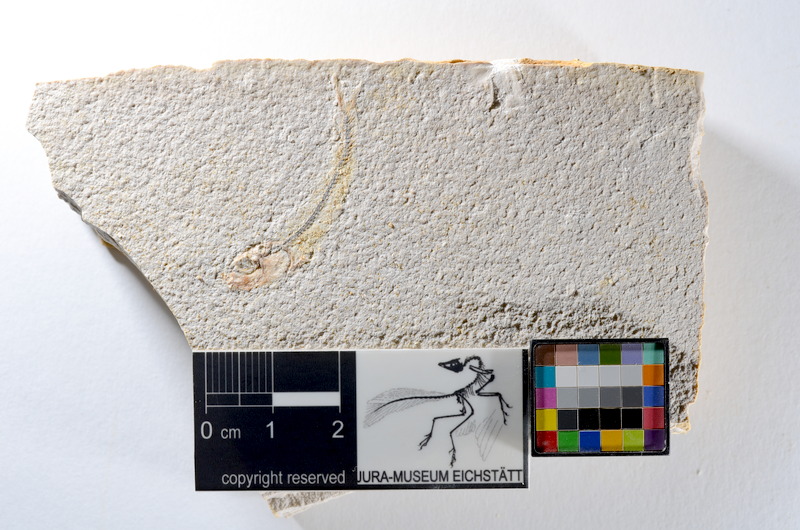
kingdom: Animalia
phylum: Chordata
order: Salmoniformes
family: Orthogonikleithridae
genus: Orthogonikleithrus
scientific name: Orthogonikleithrus hoelli
